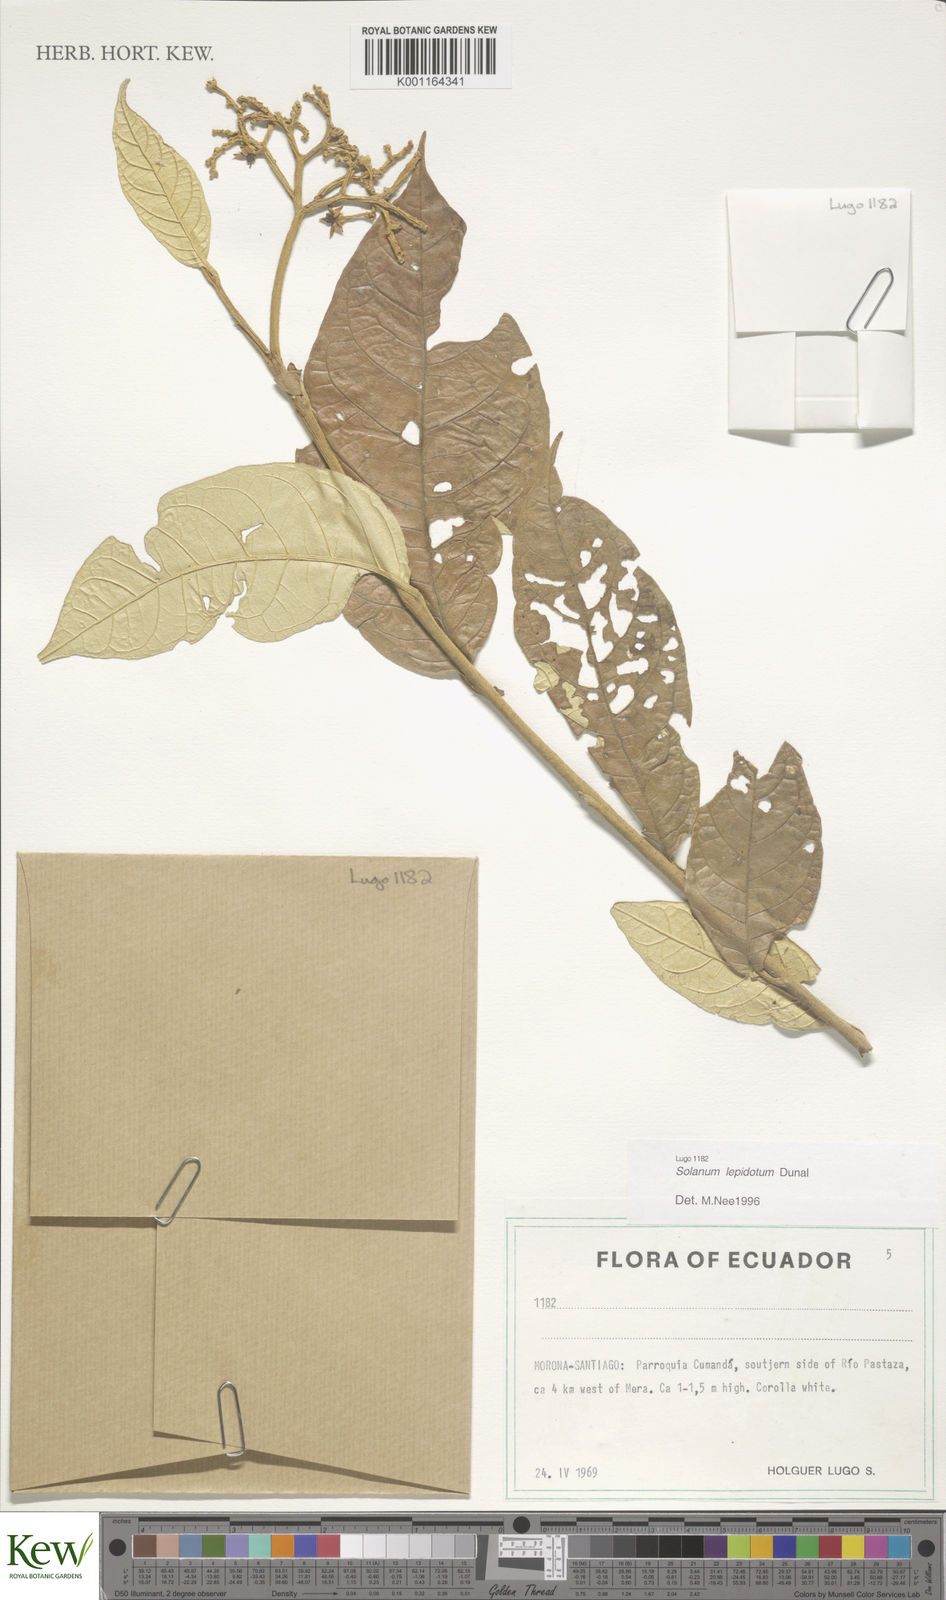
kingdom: Plantae
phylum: Tracheophyta
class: Magnoliopsida
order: Solanales
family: Solanaceae
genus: Solanum
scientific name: Solanum lepidotum
